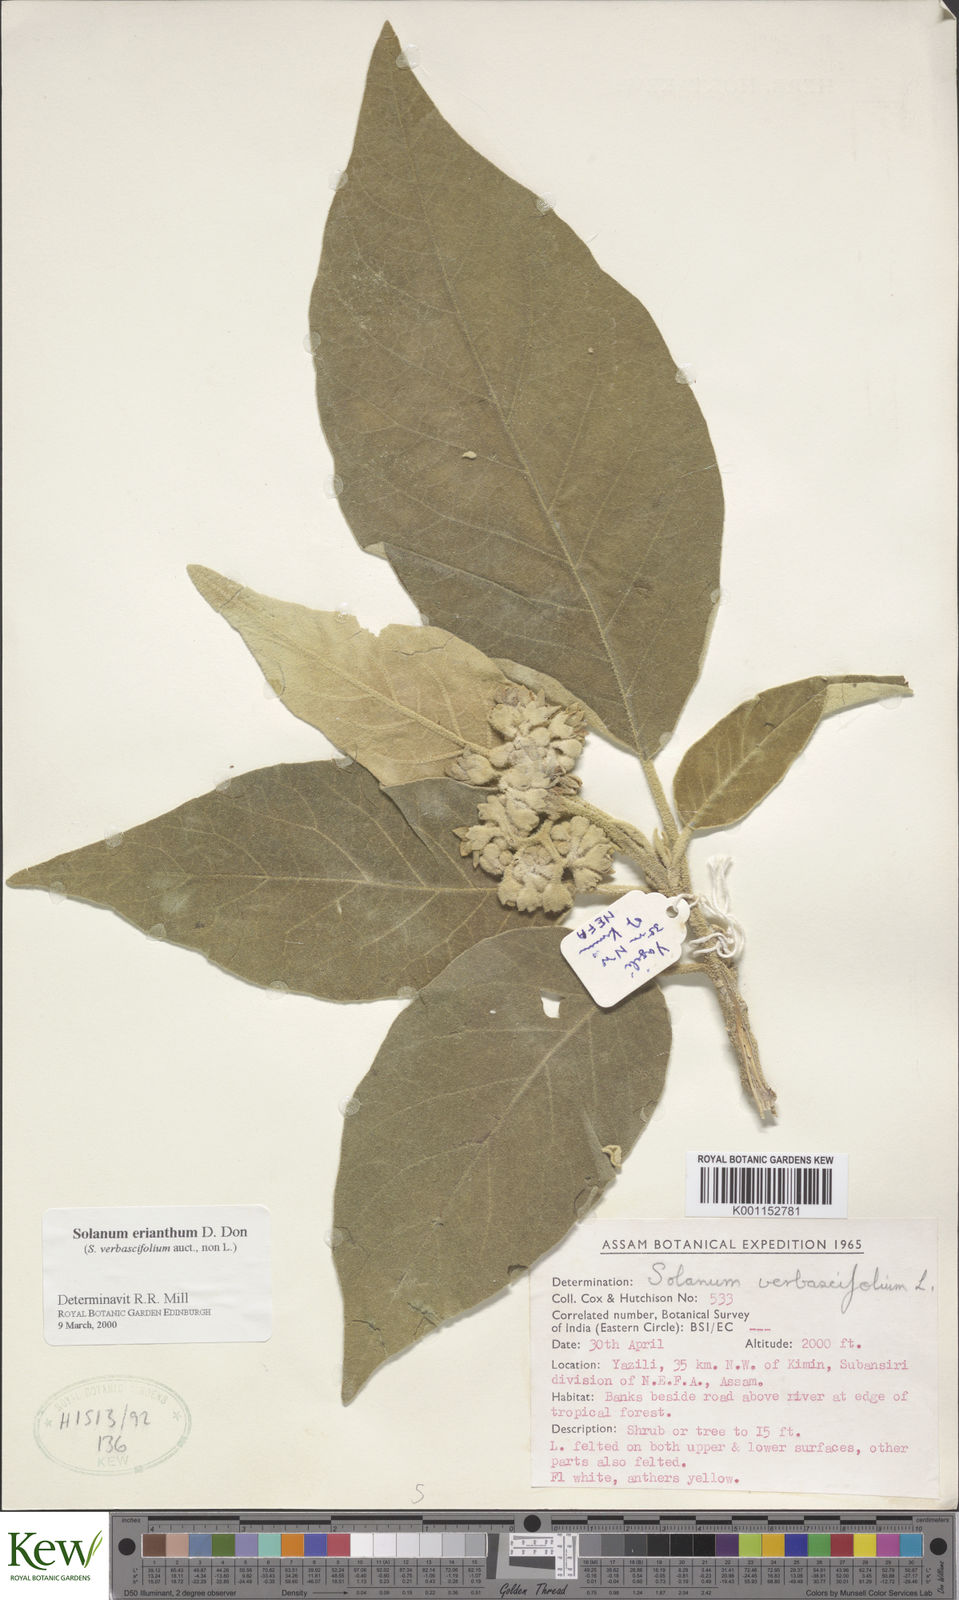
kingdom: Plantae
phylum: Tracheophyta
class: Magnoliopsida
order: Solanales
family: Solanaceae
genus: Solanum
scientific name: Solanum erianthum
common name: Tobacco-tree
